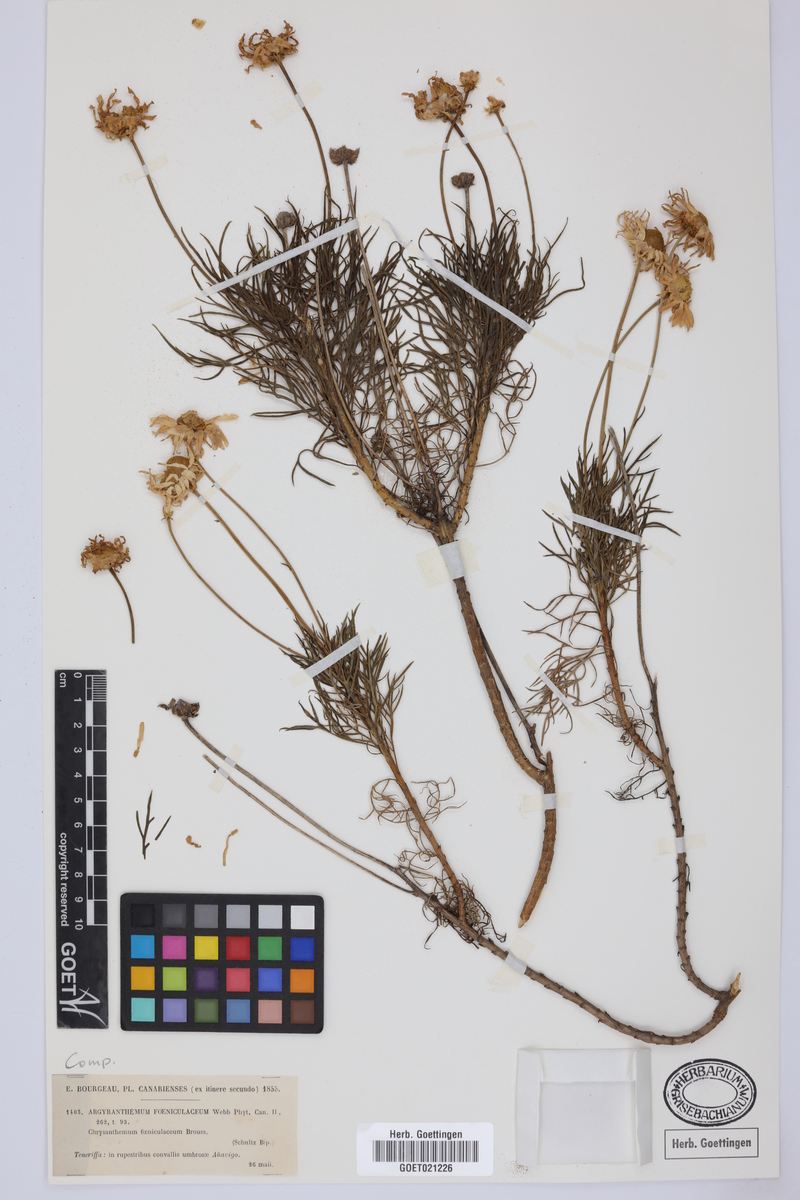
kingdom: Plantae
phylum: Tracheophyta
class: Magnoliopsida
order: Asterales
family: Asteraceae
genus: Argyranthemum
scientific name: Argyranthemum foeniculaceum
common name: Canary island marguerite
